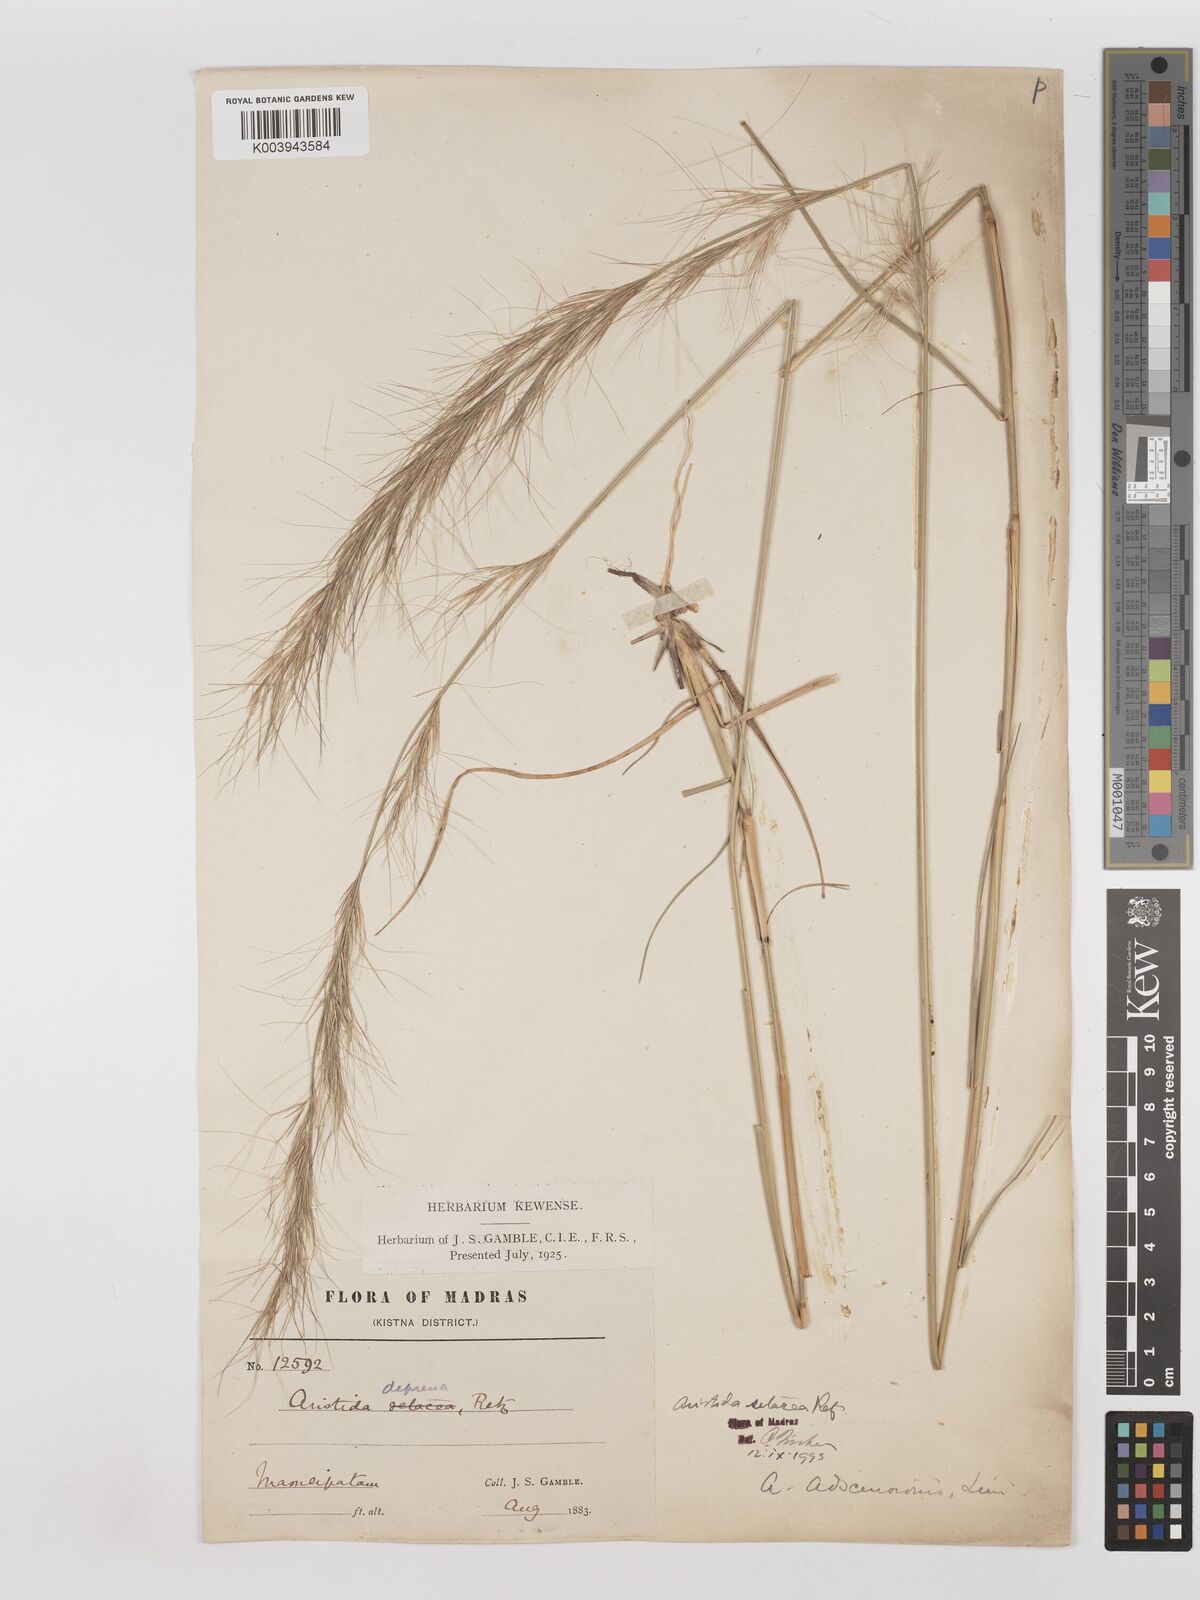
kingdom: Plantae
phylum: Tracheophyta
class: Liliopsida
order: Poales
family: Poaceae
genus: Aristida
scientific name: Aristida setacea
